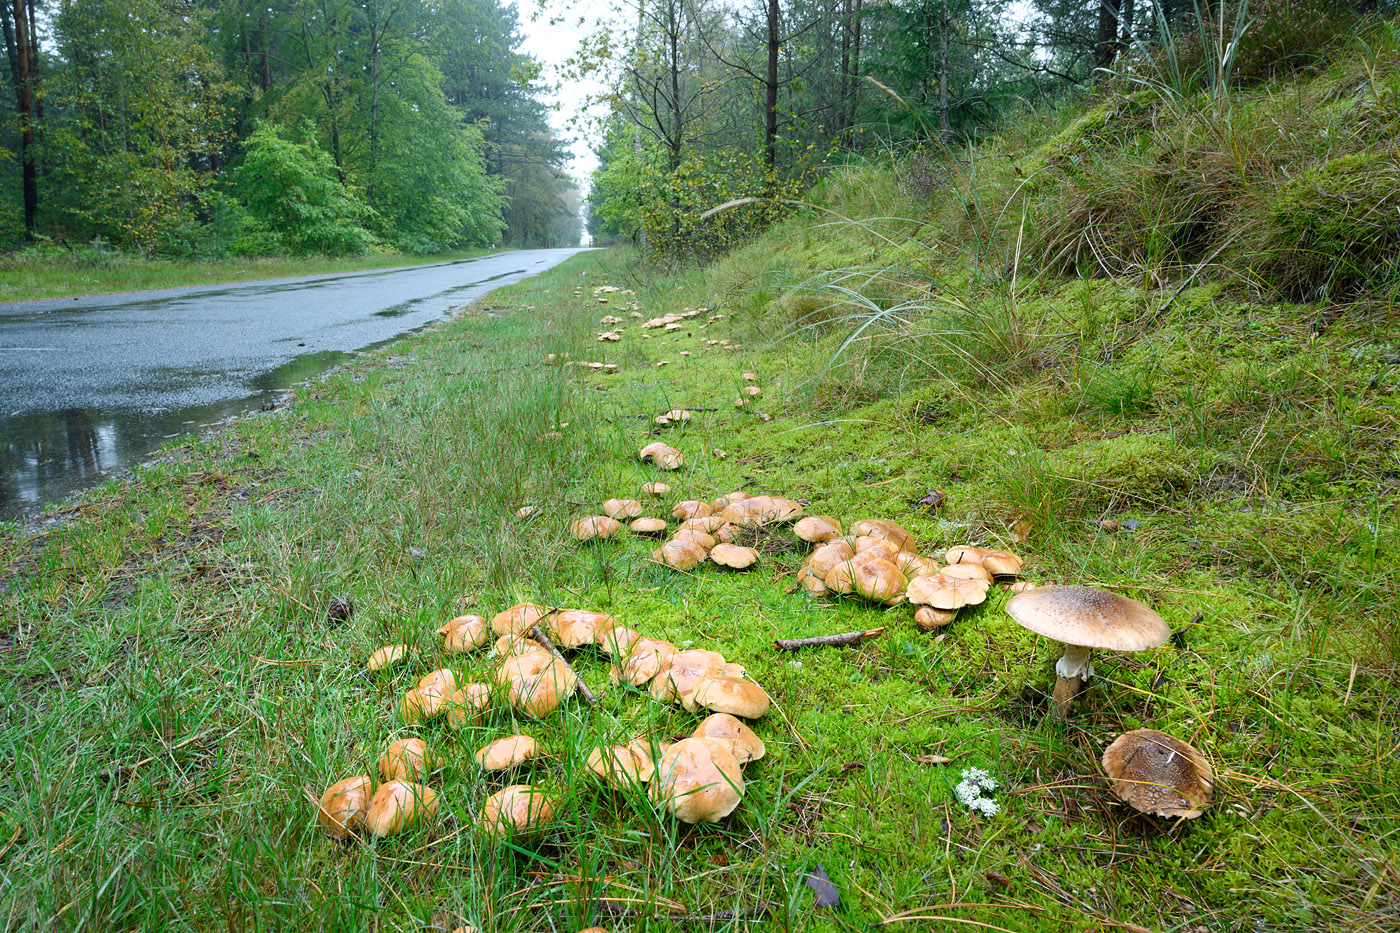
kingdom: Fungi
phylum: Basidiomycota
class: Agaricomycetes
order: Boletales
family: Suillaceae
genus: Suillus
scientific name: Suillus bovinus
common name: grovporet slimrørhat
